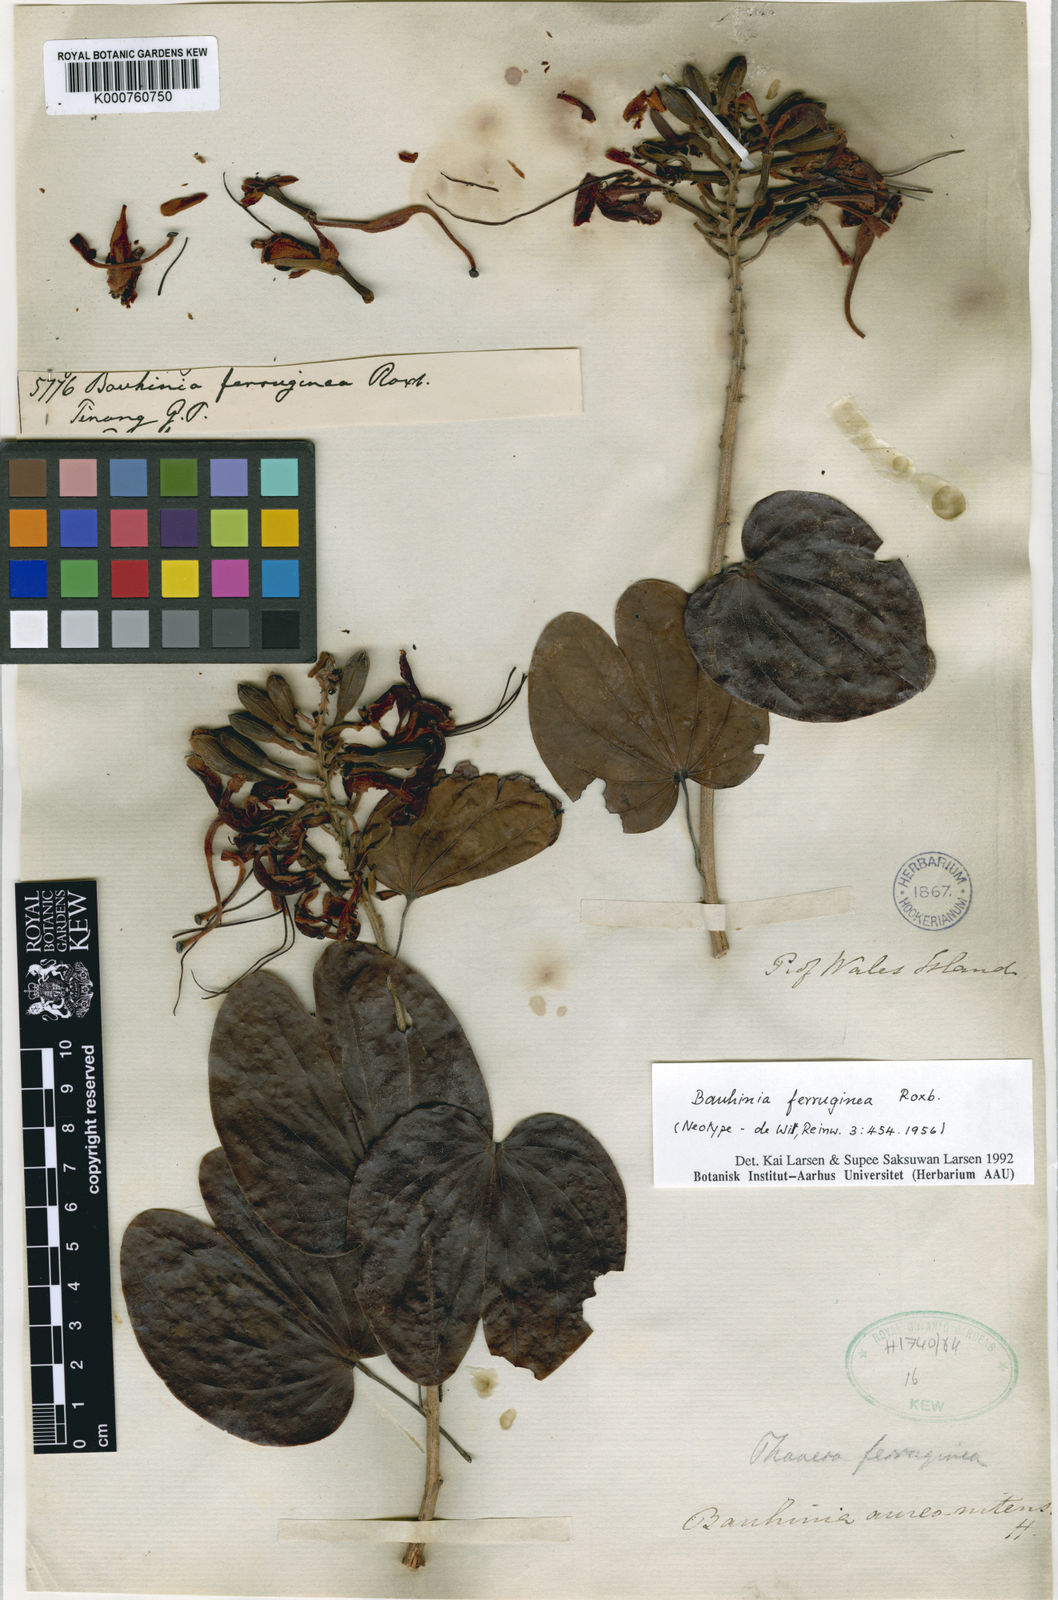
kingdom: Plantae
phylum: Tracheophyta
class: Magnoliopsida
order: Fabales
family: Fabaceae
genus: Phanera
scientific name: Phanera ferruginea
